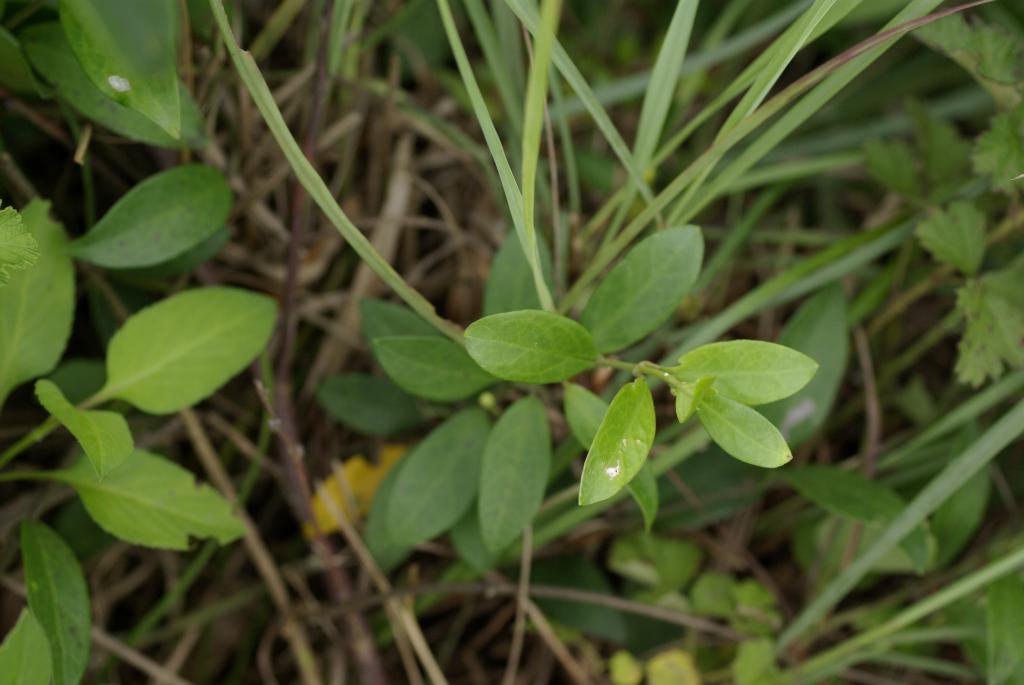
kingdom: Plantae
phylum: Tracheophyta
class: Magnoliopsida
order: Gentianales
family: Apocynaceae
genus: Gymnema
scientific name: Gymnema sylvestre
